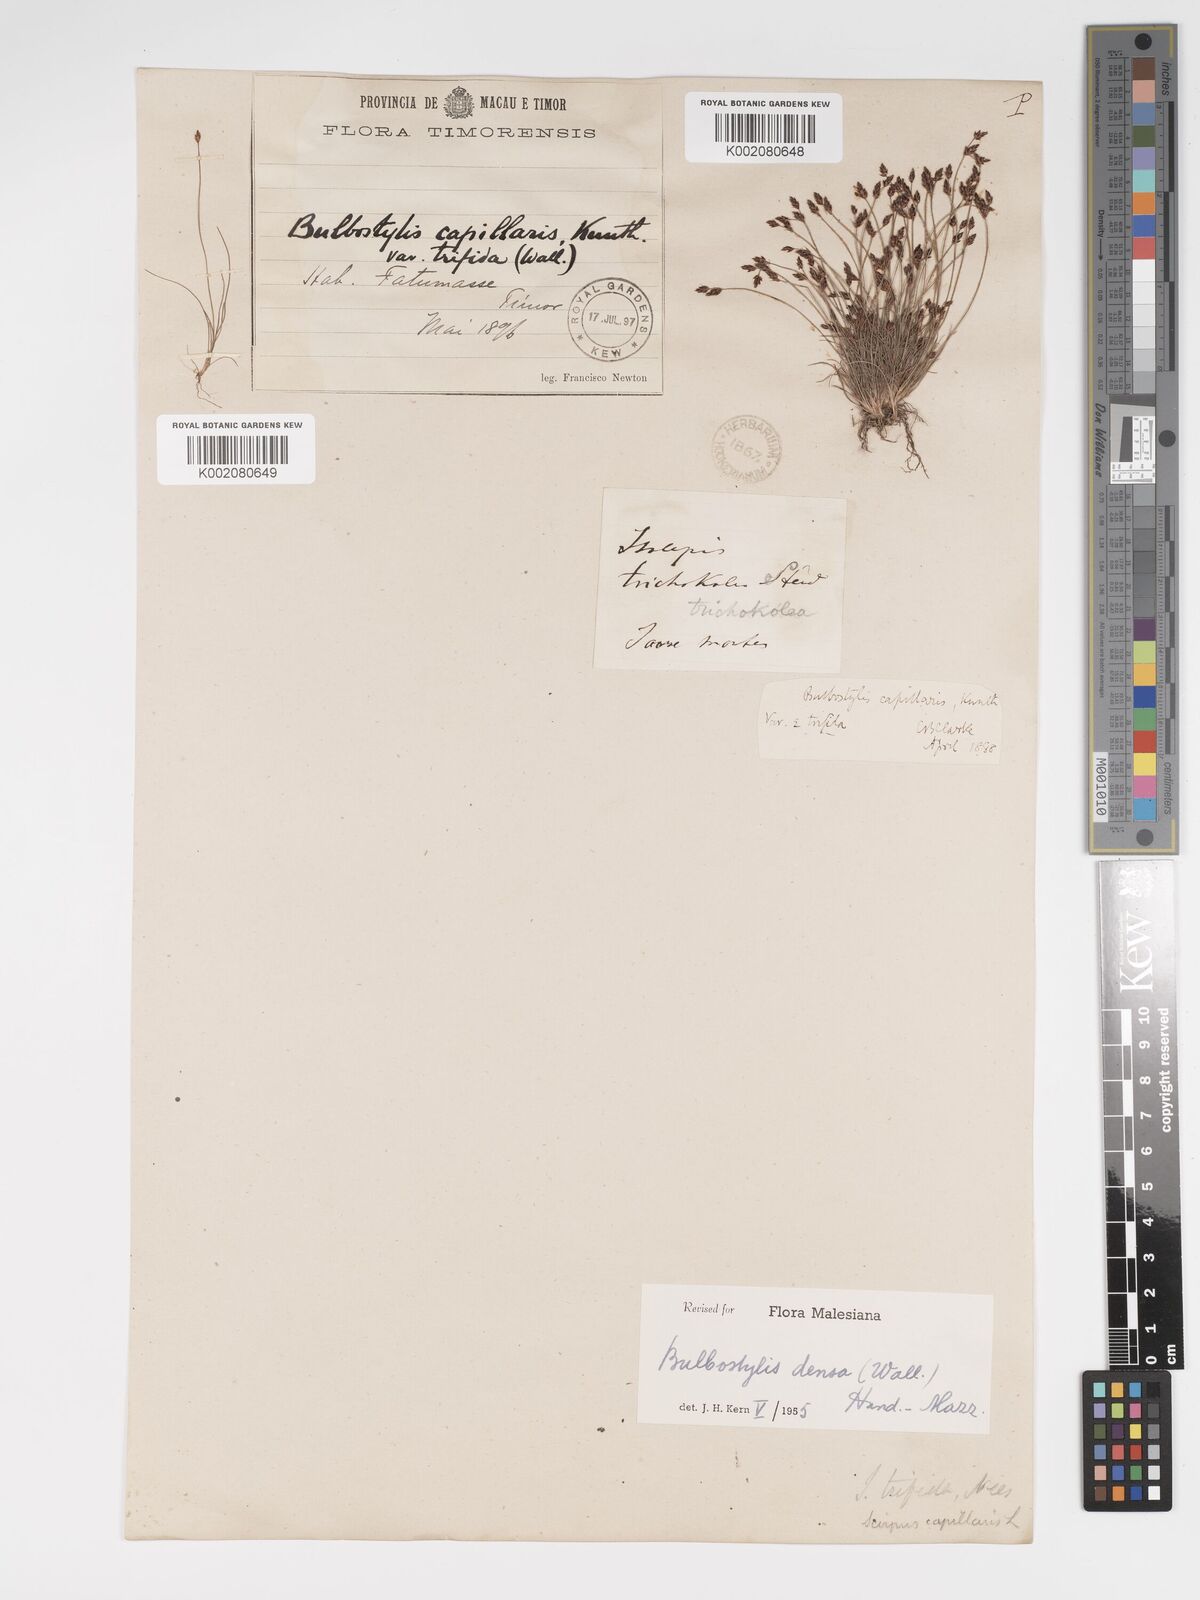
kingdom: Plantae
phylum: Tracheophyta
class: Liliopsida
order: Poales
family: Cyperaceae
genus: Bulbostylis
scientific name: Bulbostylis densa
